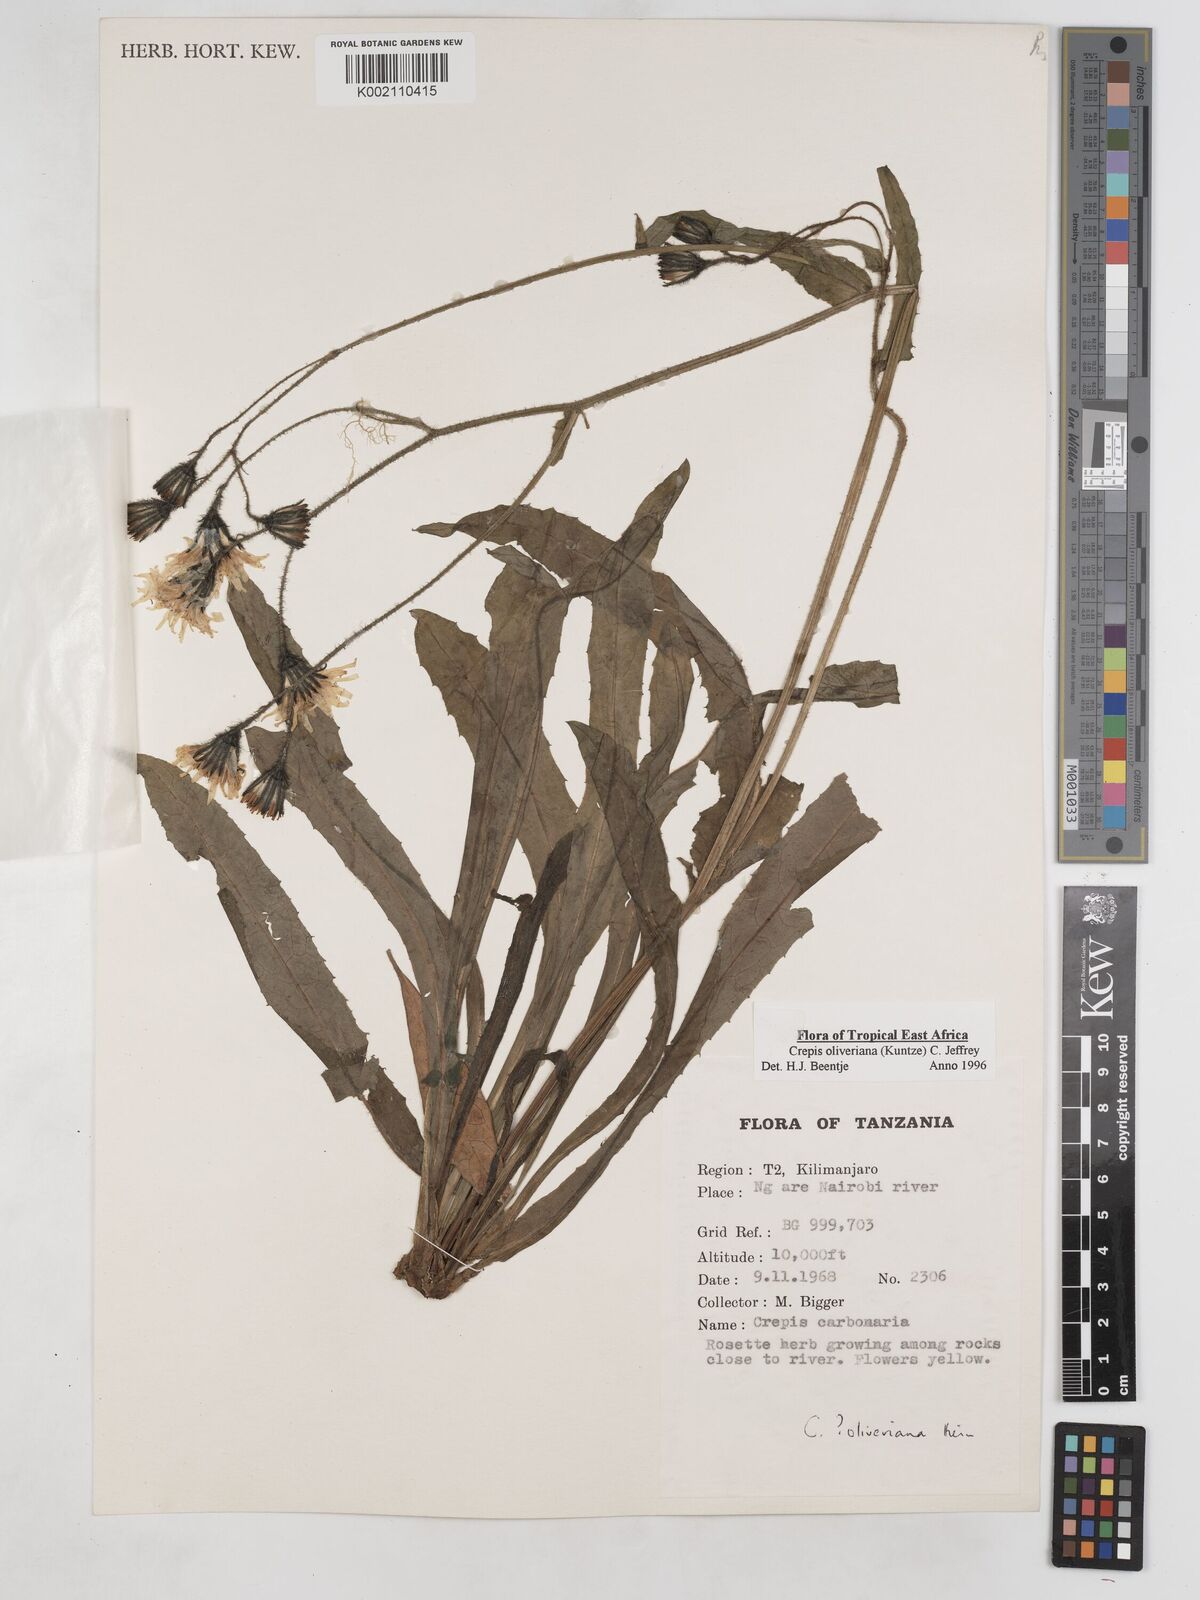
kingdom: Plantae
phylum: Tracheophyta
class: Magnoliopsida
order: Asterales
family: Asteraceae
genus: Crepis
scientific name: Crepis hypochoeridea
